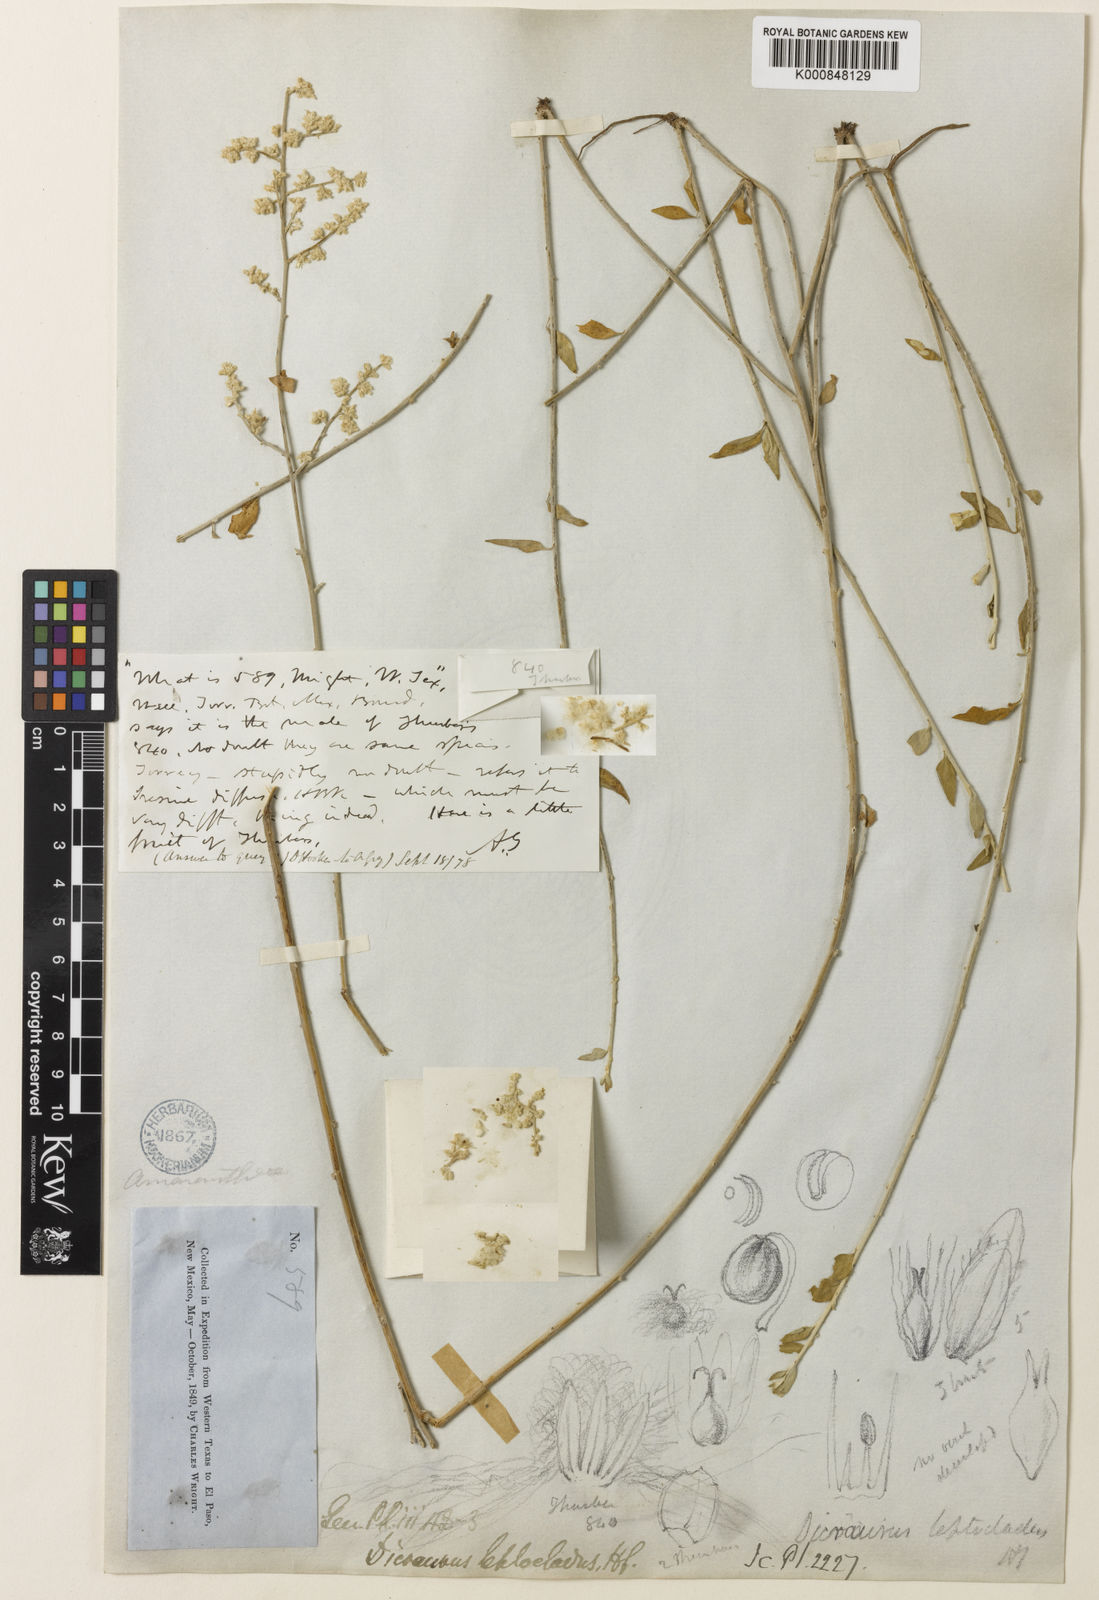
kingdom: Plantae
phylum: Tracheophyta
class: Magnoliopsida
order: Caryophyllales
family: Amaranthaceae
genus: Iresine
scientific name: Iresine leptoclada
